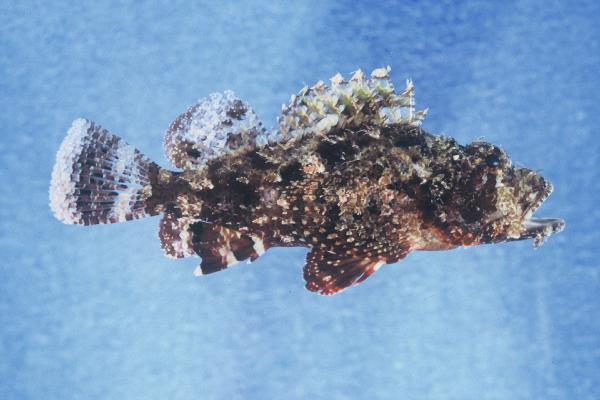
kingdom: Animalia
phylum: Chordata
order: Scorpaeniformes
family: Scorpaenidae
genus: Scorpaenopsis
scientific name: Scorpaenopsis barbata
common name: Bearded scorpionfish
